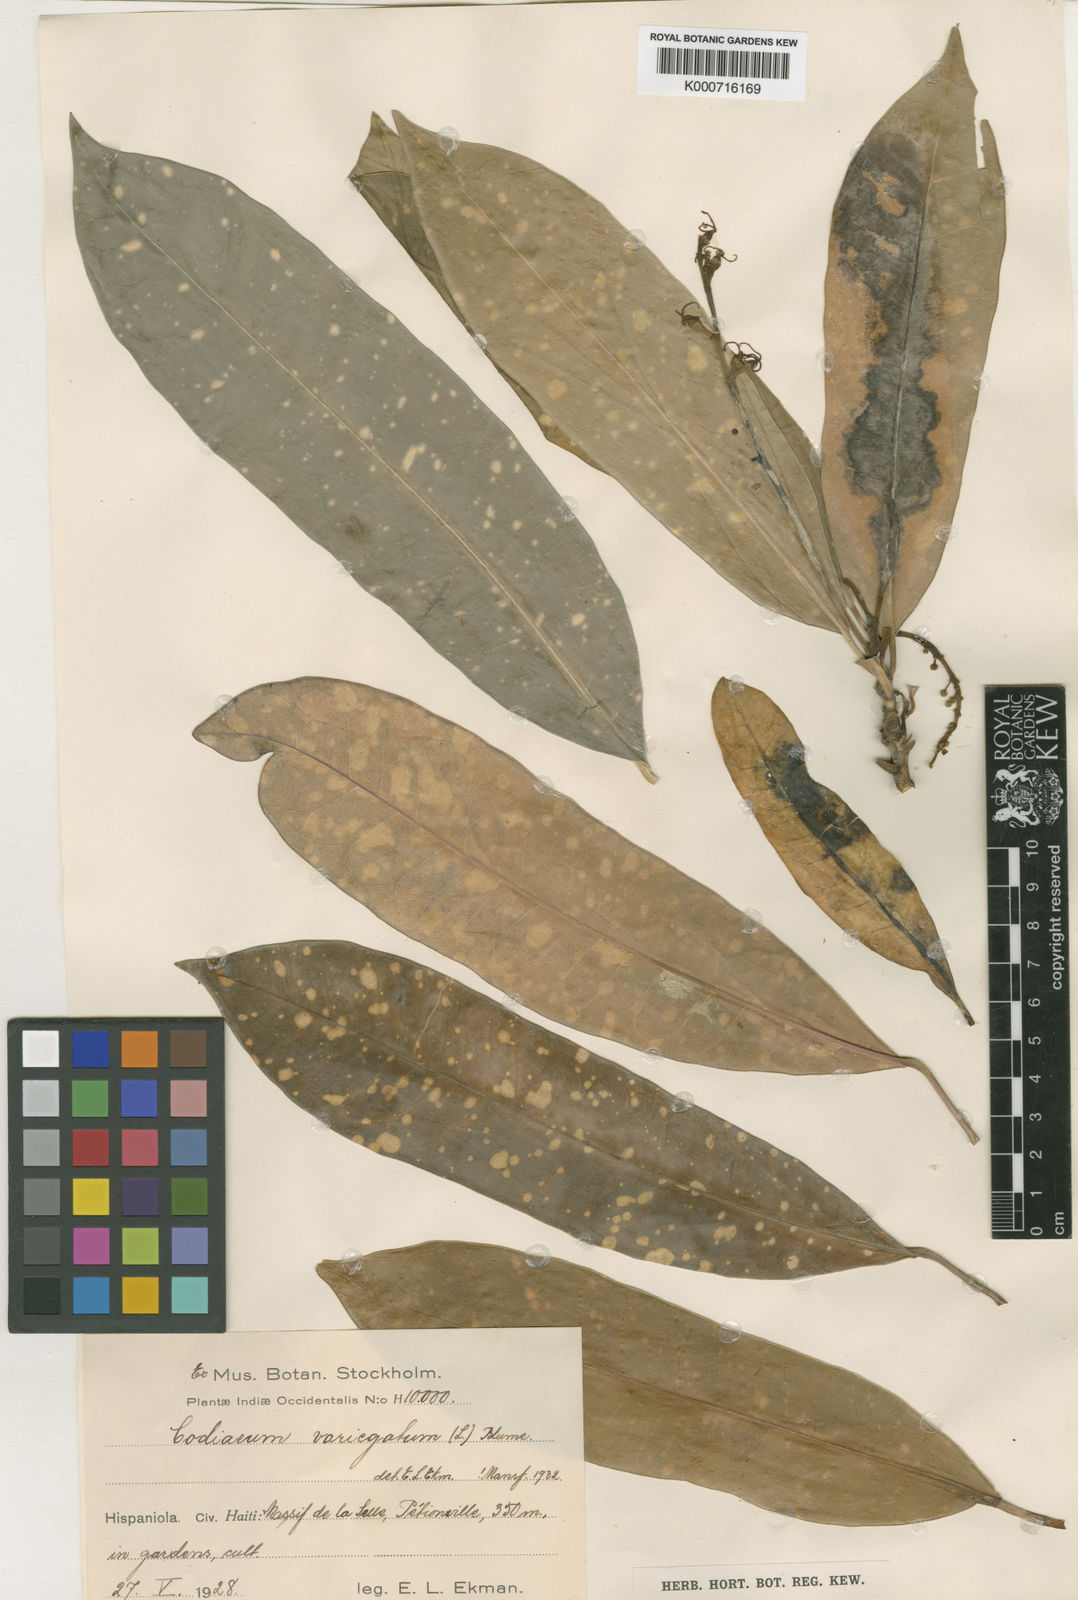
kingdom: Plantae
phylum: Tracheophyta
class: Magnoliopsida
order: Malpighiales
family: Euphorbiaceae
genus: Codiaeum
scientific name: Codiaeum variegatum
